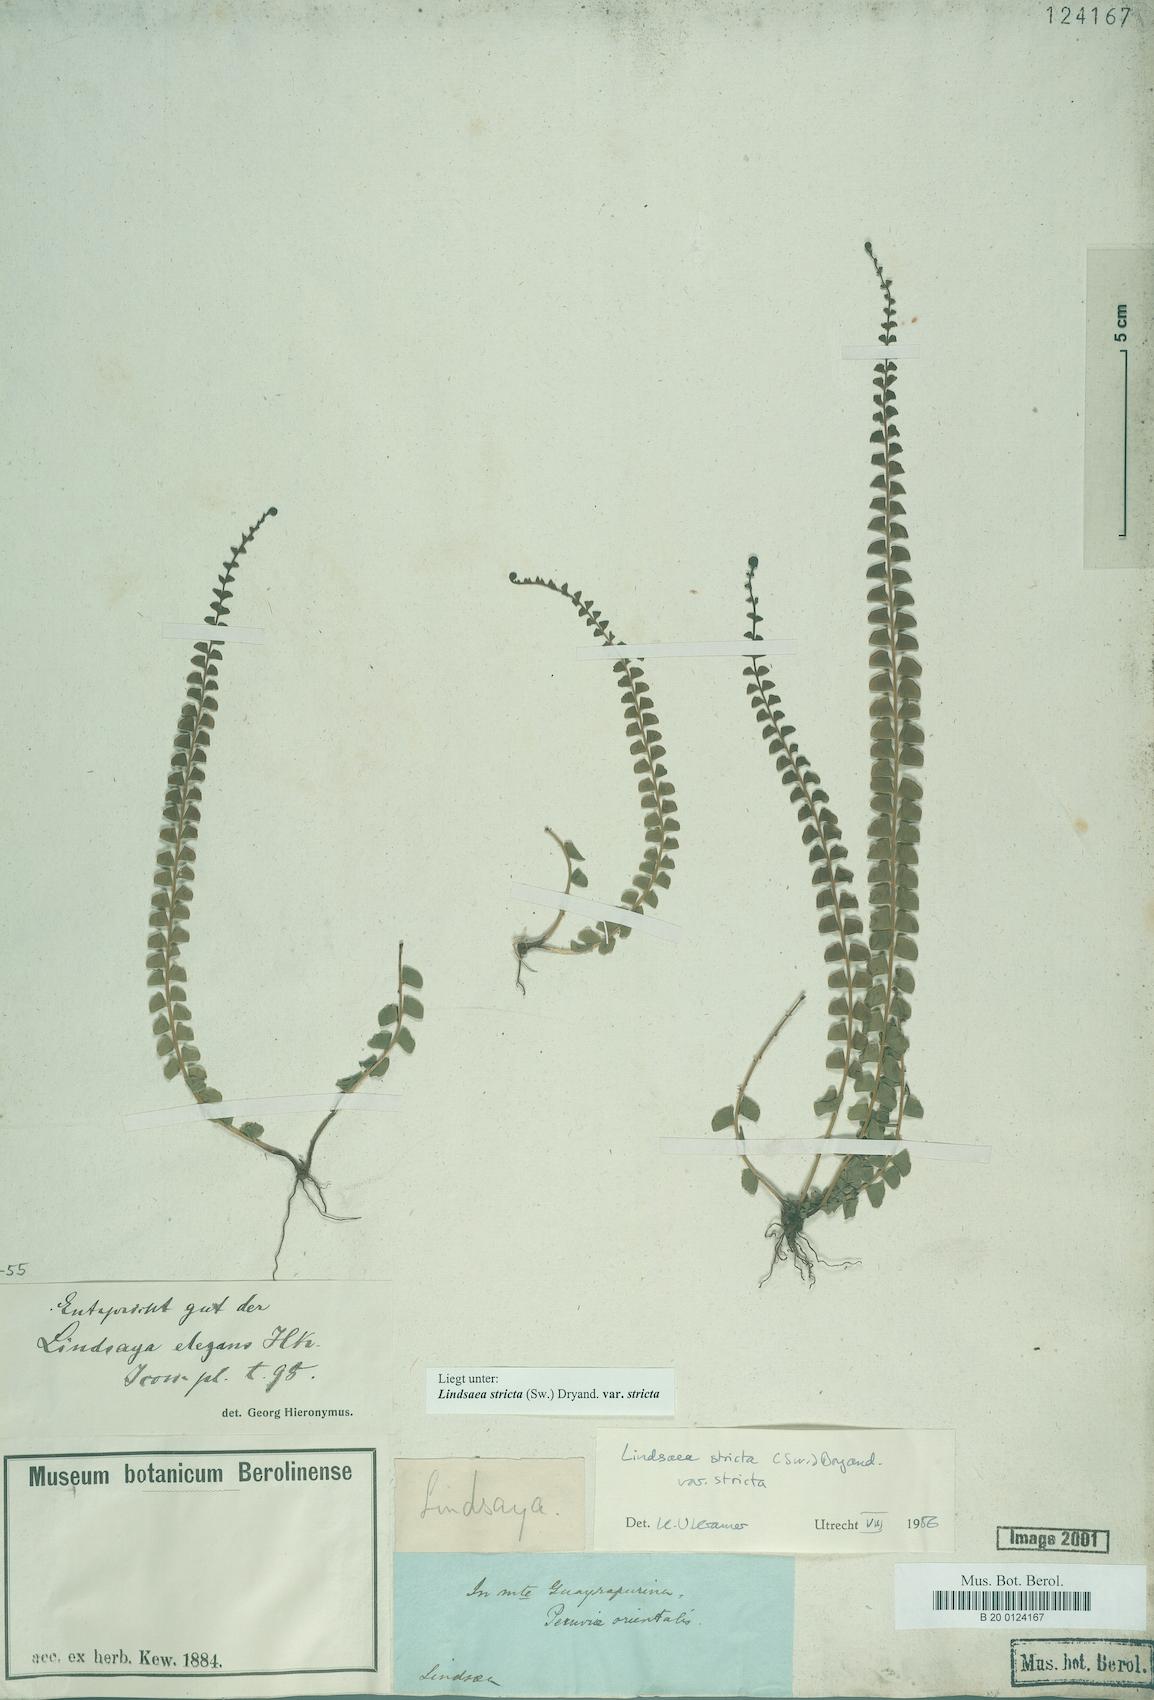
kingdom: Plantae
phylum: Tracheophyta
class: Polypodiopsida
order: Polypodiales
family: Lindsaeaceae
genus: Lindsaea
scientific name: Lindsaea stricta
